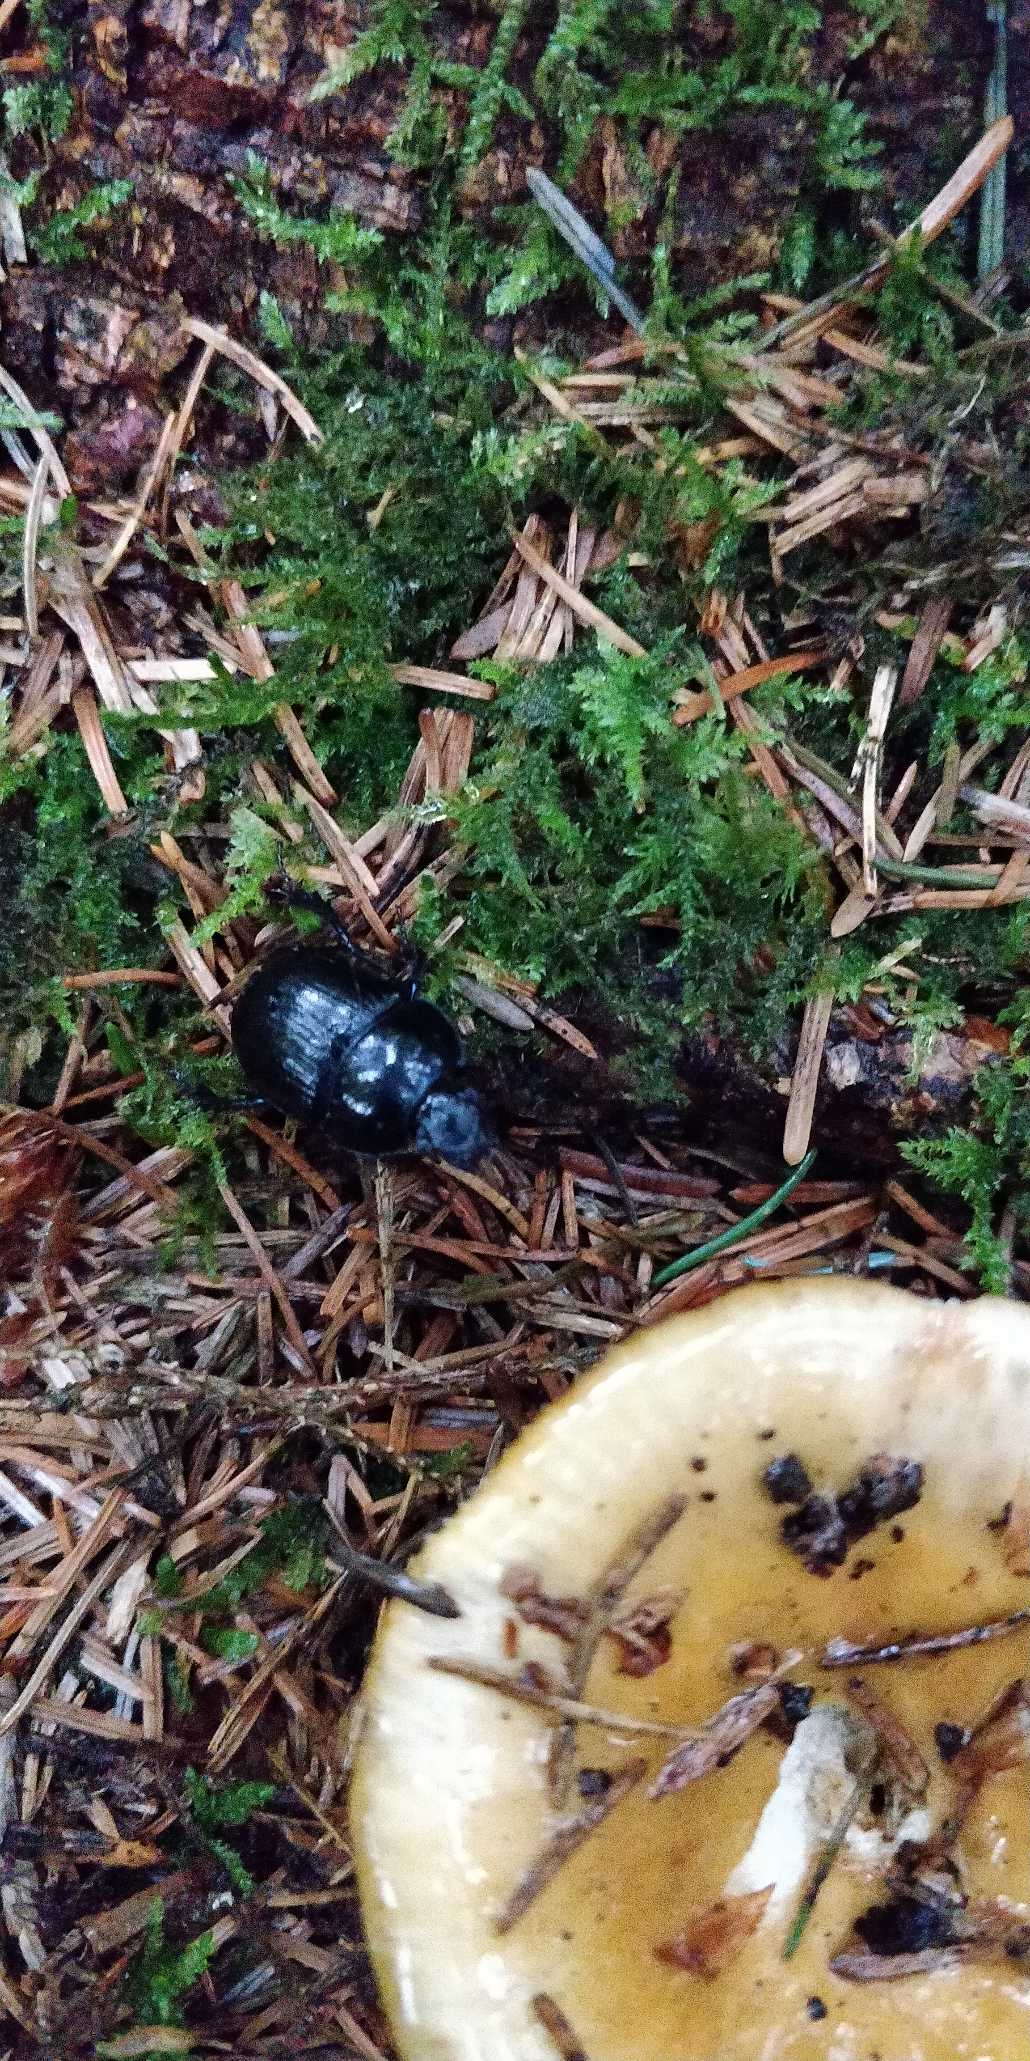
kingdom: Animalia
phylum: Arthropoda
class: Insecta
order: Coleoptera
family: Geotrupidae
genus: Anoplotrupes
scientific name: Anoplotrupes stercorosus
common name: Skovskarnbasse
